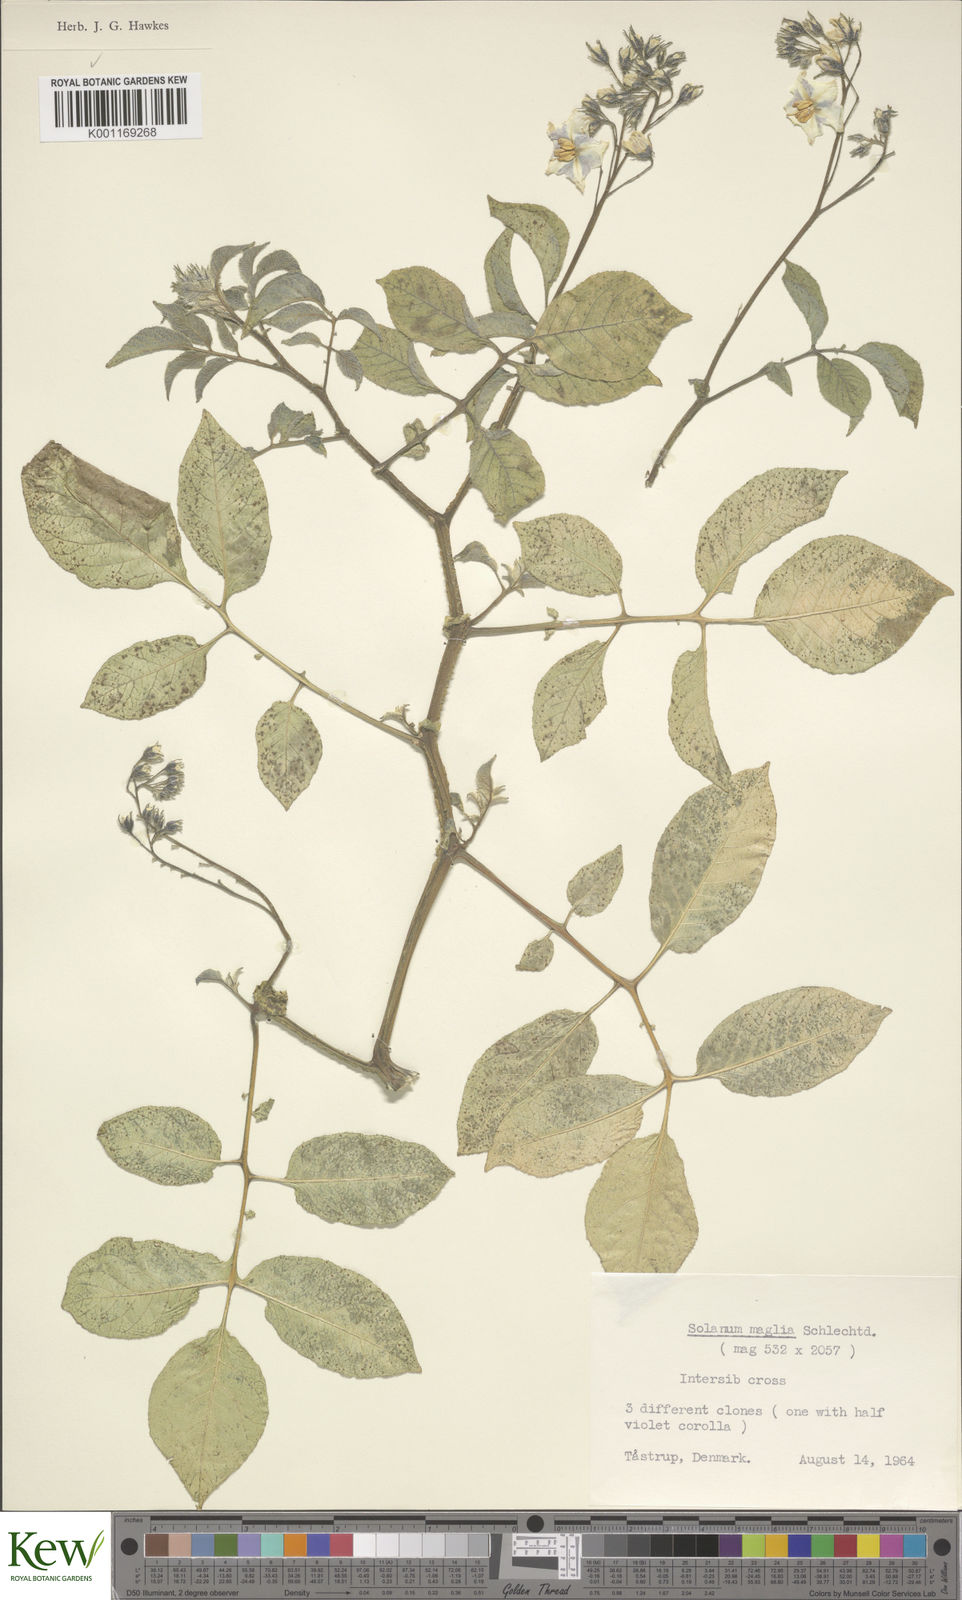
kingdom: Plantae
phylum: Tracheophyta
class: Magnoliopsida
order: Solanales
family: Solanaceae
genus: Solanum
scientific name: Solanum maglia
